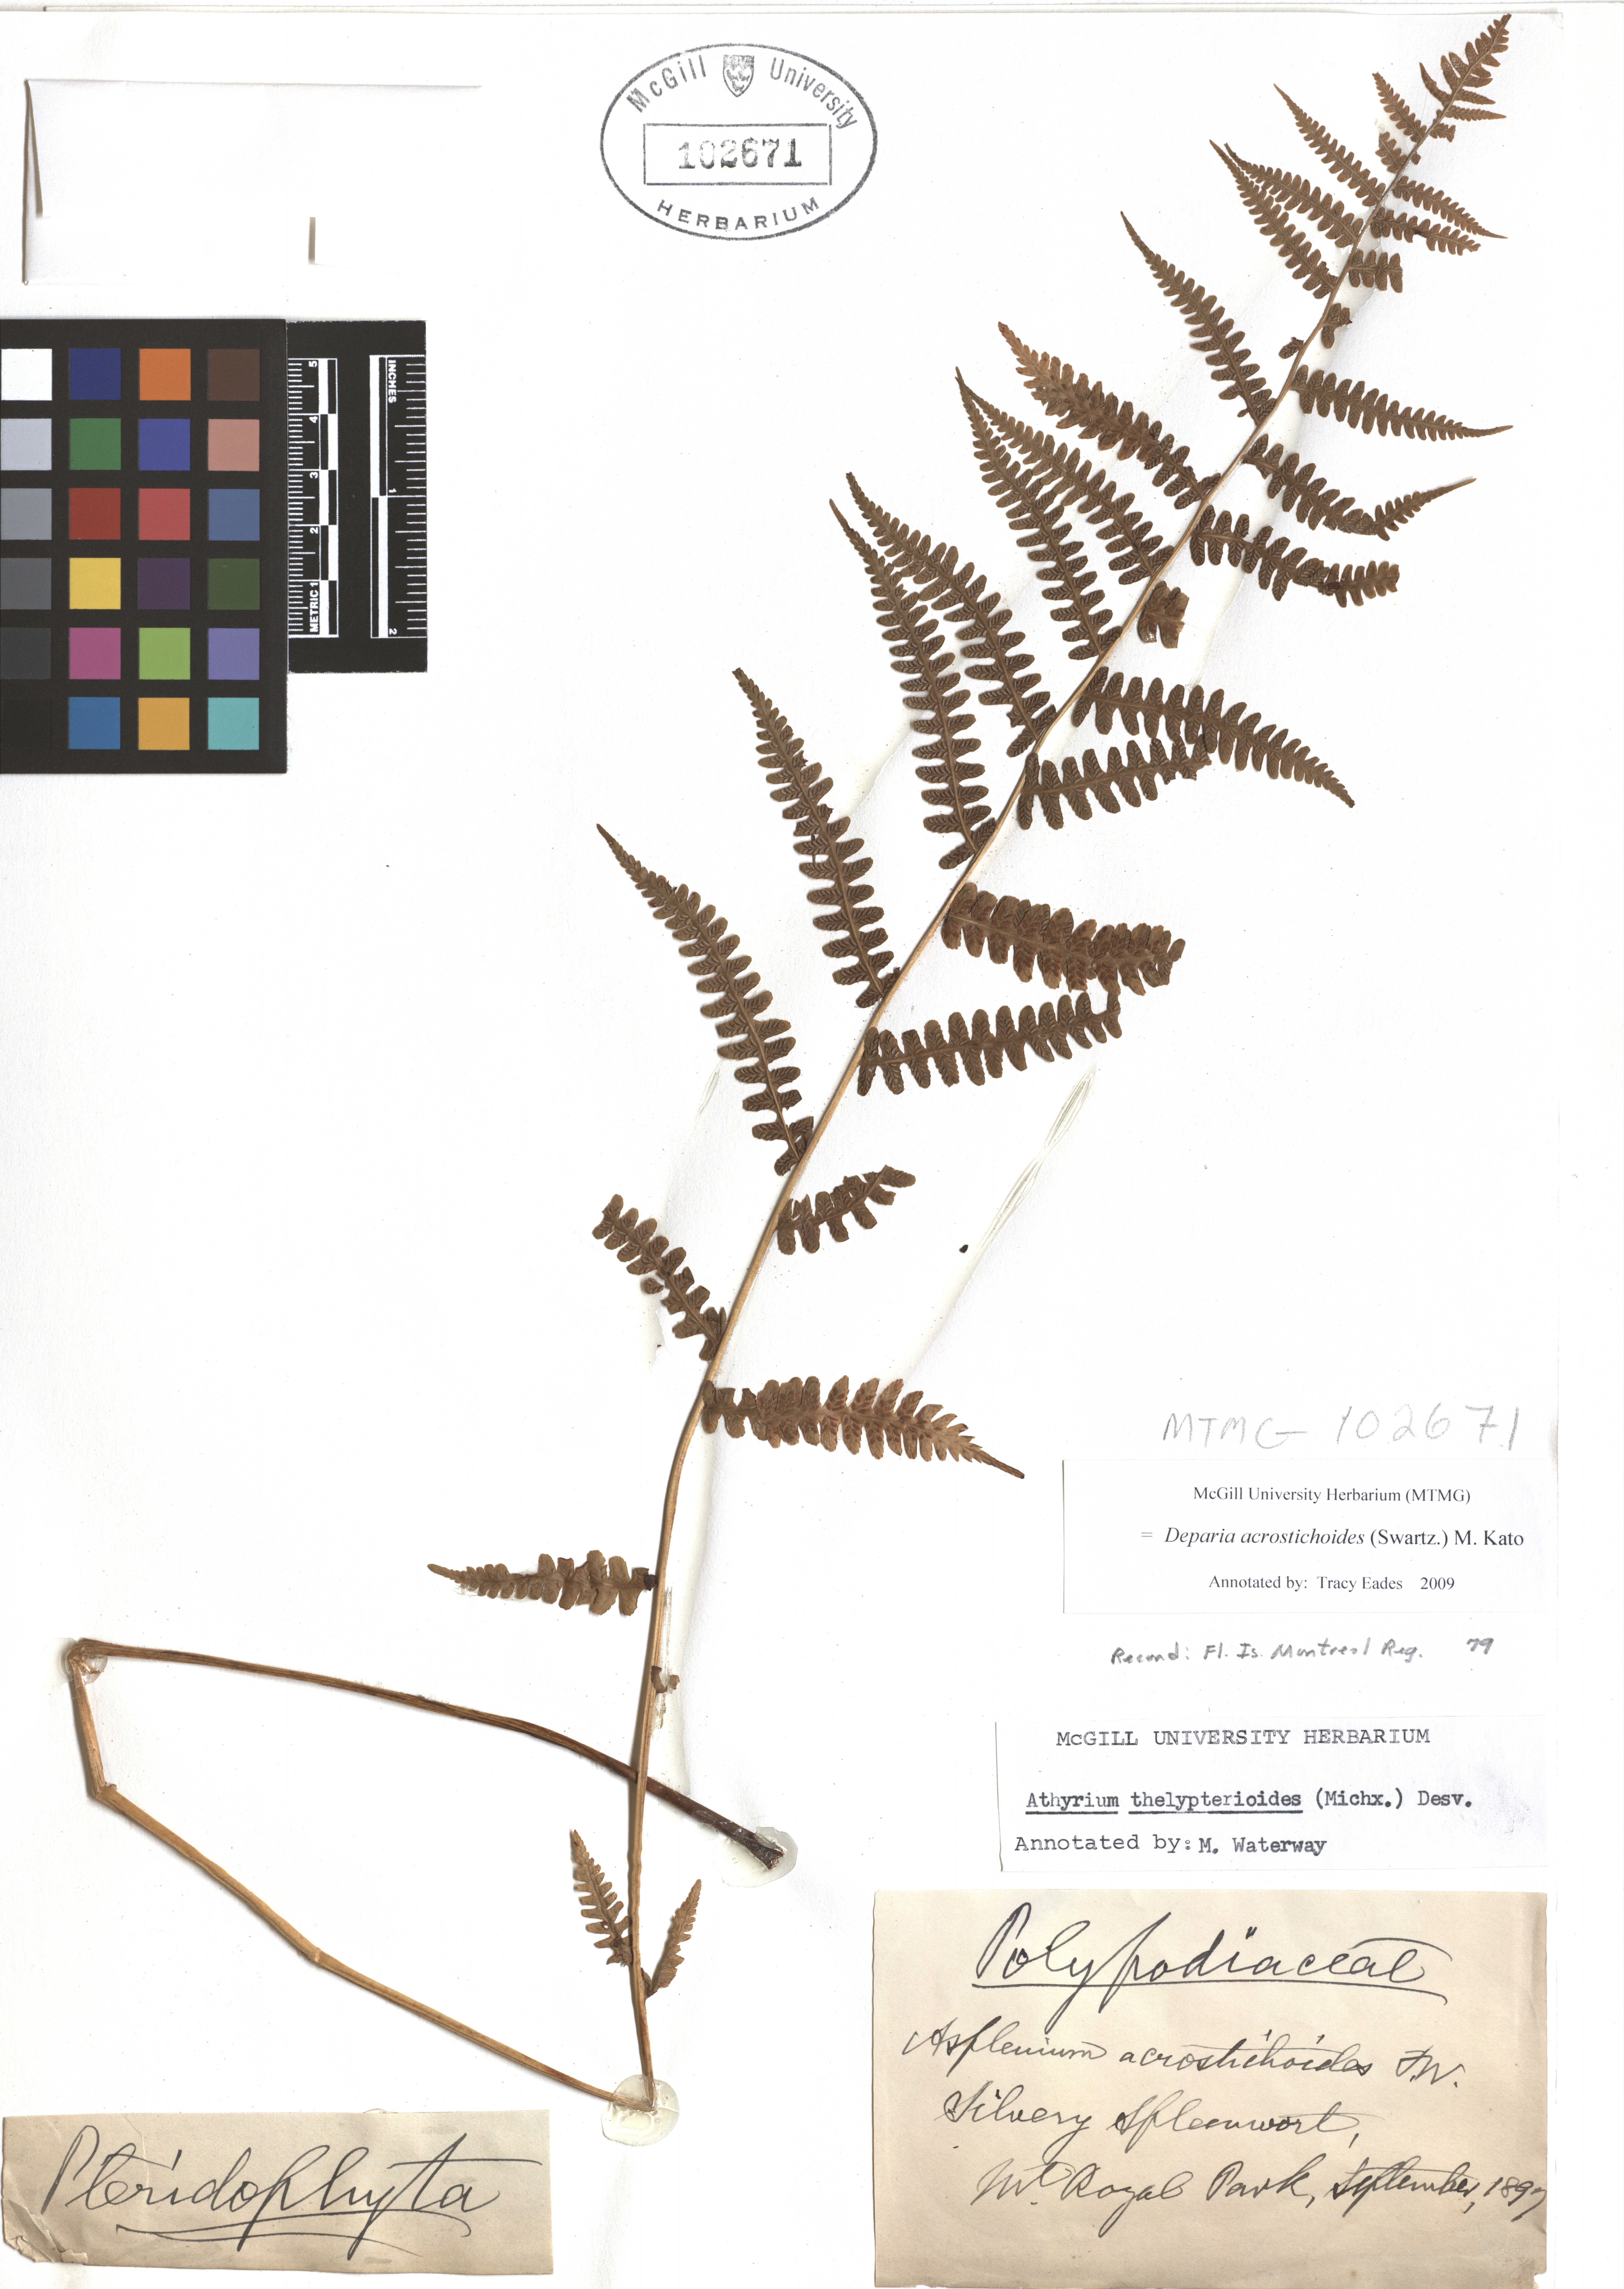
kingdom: Plantae
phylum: Tracheophyta
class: Polypodiopsida
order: Polypodiales
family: Athyriaceae
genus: Deparia
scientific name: Deparia acrostichoides
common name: Silver false spleenwort
